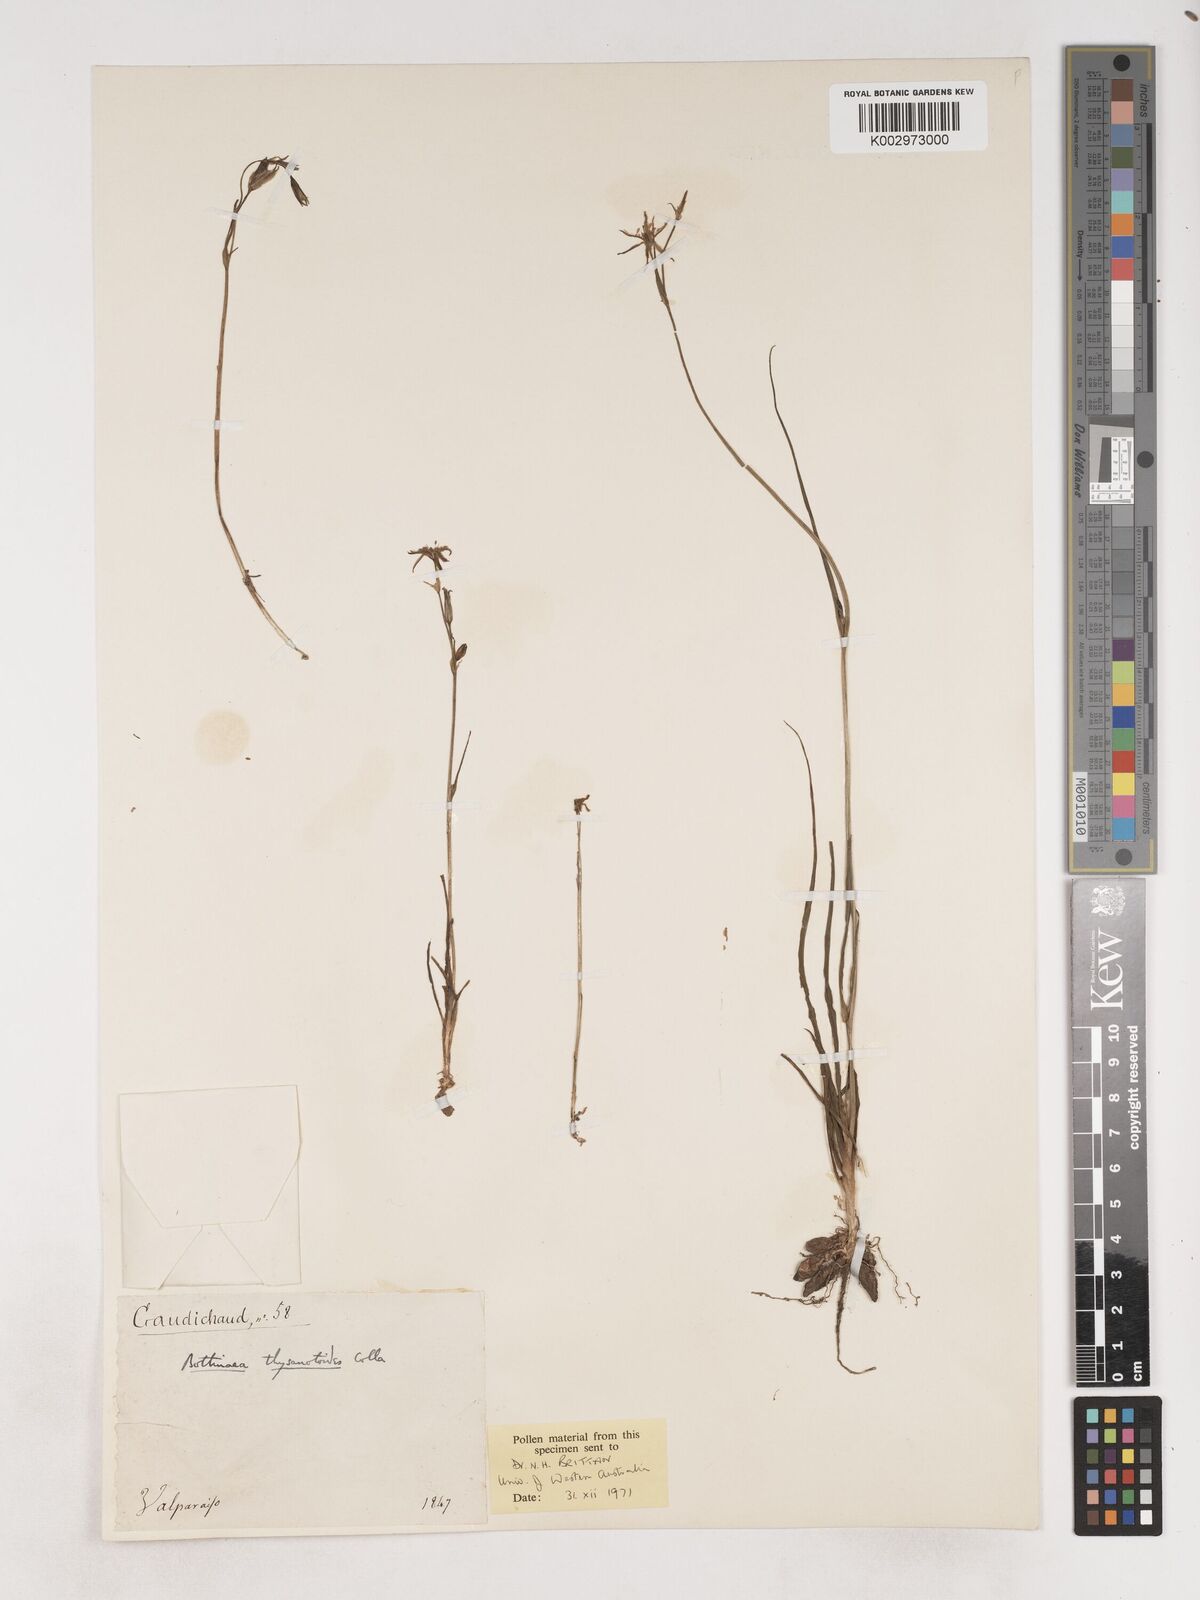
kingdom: Plantae
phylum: Tracheophyta
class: Liliopsida
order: Asparagales
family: Asparagaceae
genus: Trichopetalum
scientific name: Trichopetalum plumosum
